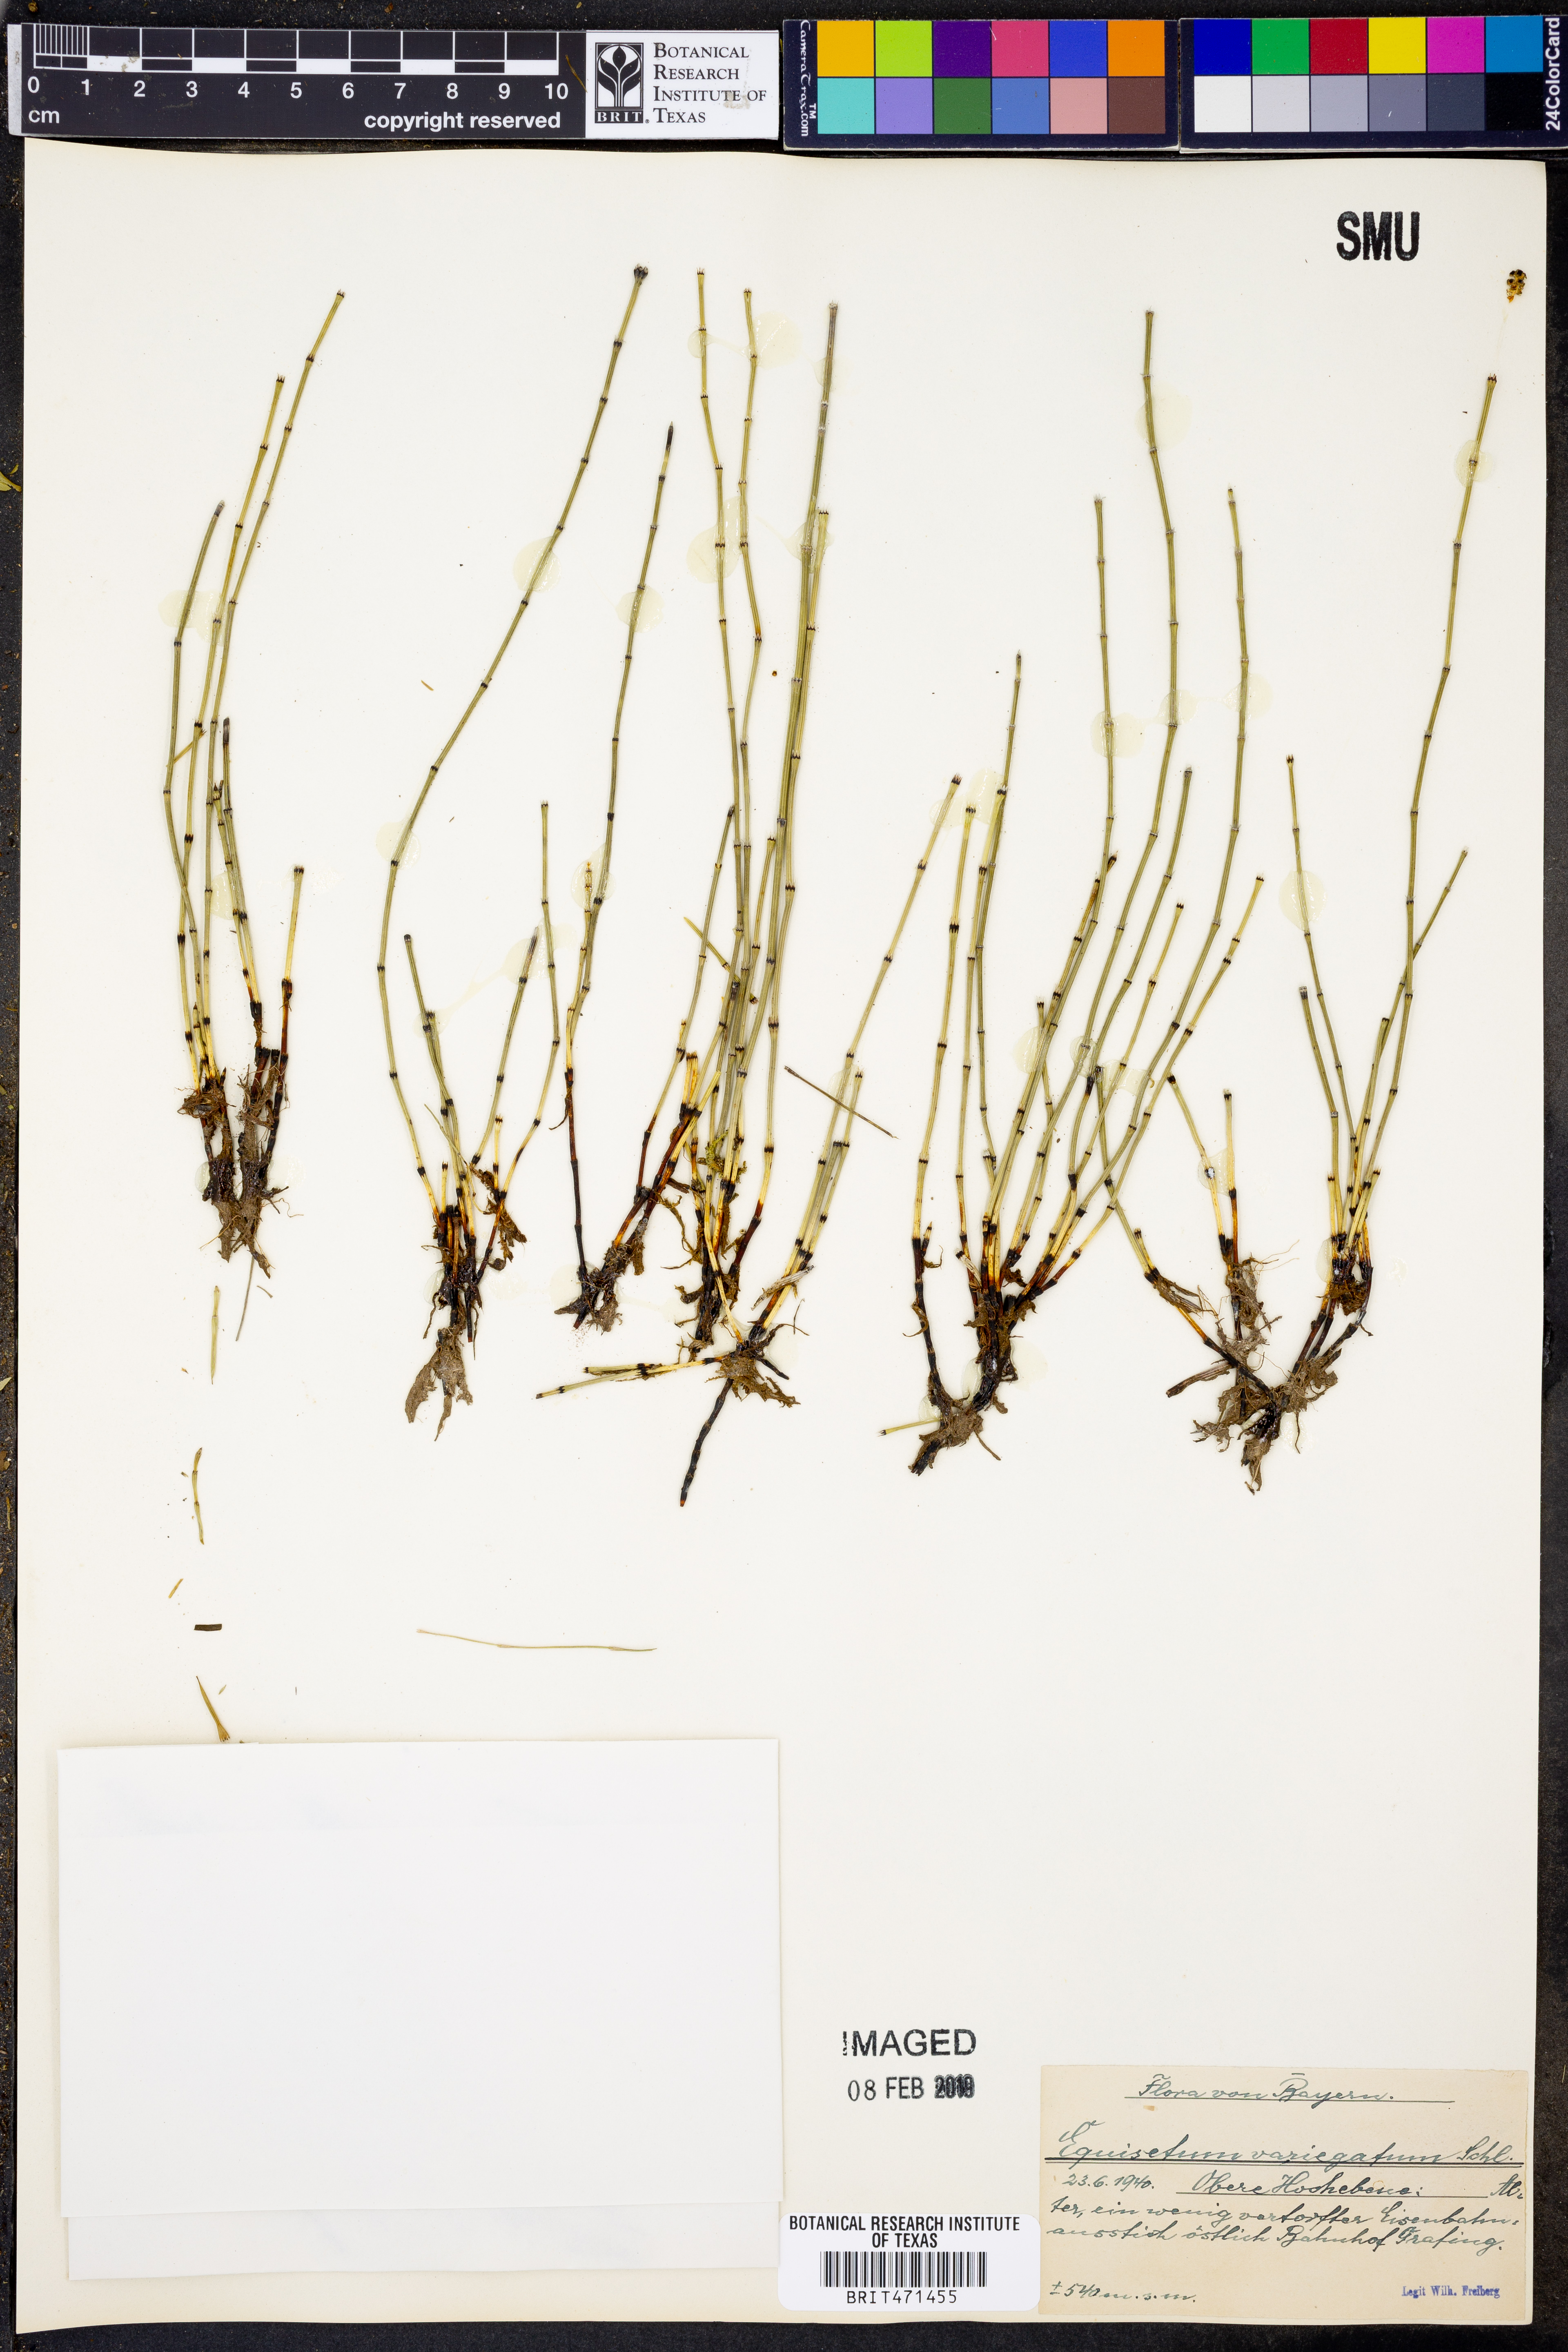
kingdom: Plantae
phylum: Tracheophyta
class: Polypodiopsida
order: Equisetales
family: Equisetaceae
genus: Equisetum
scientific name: Equisetum variegatum
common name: Variegated horsetail
